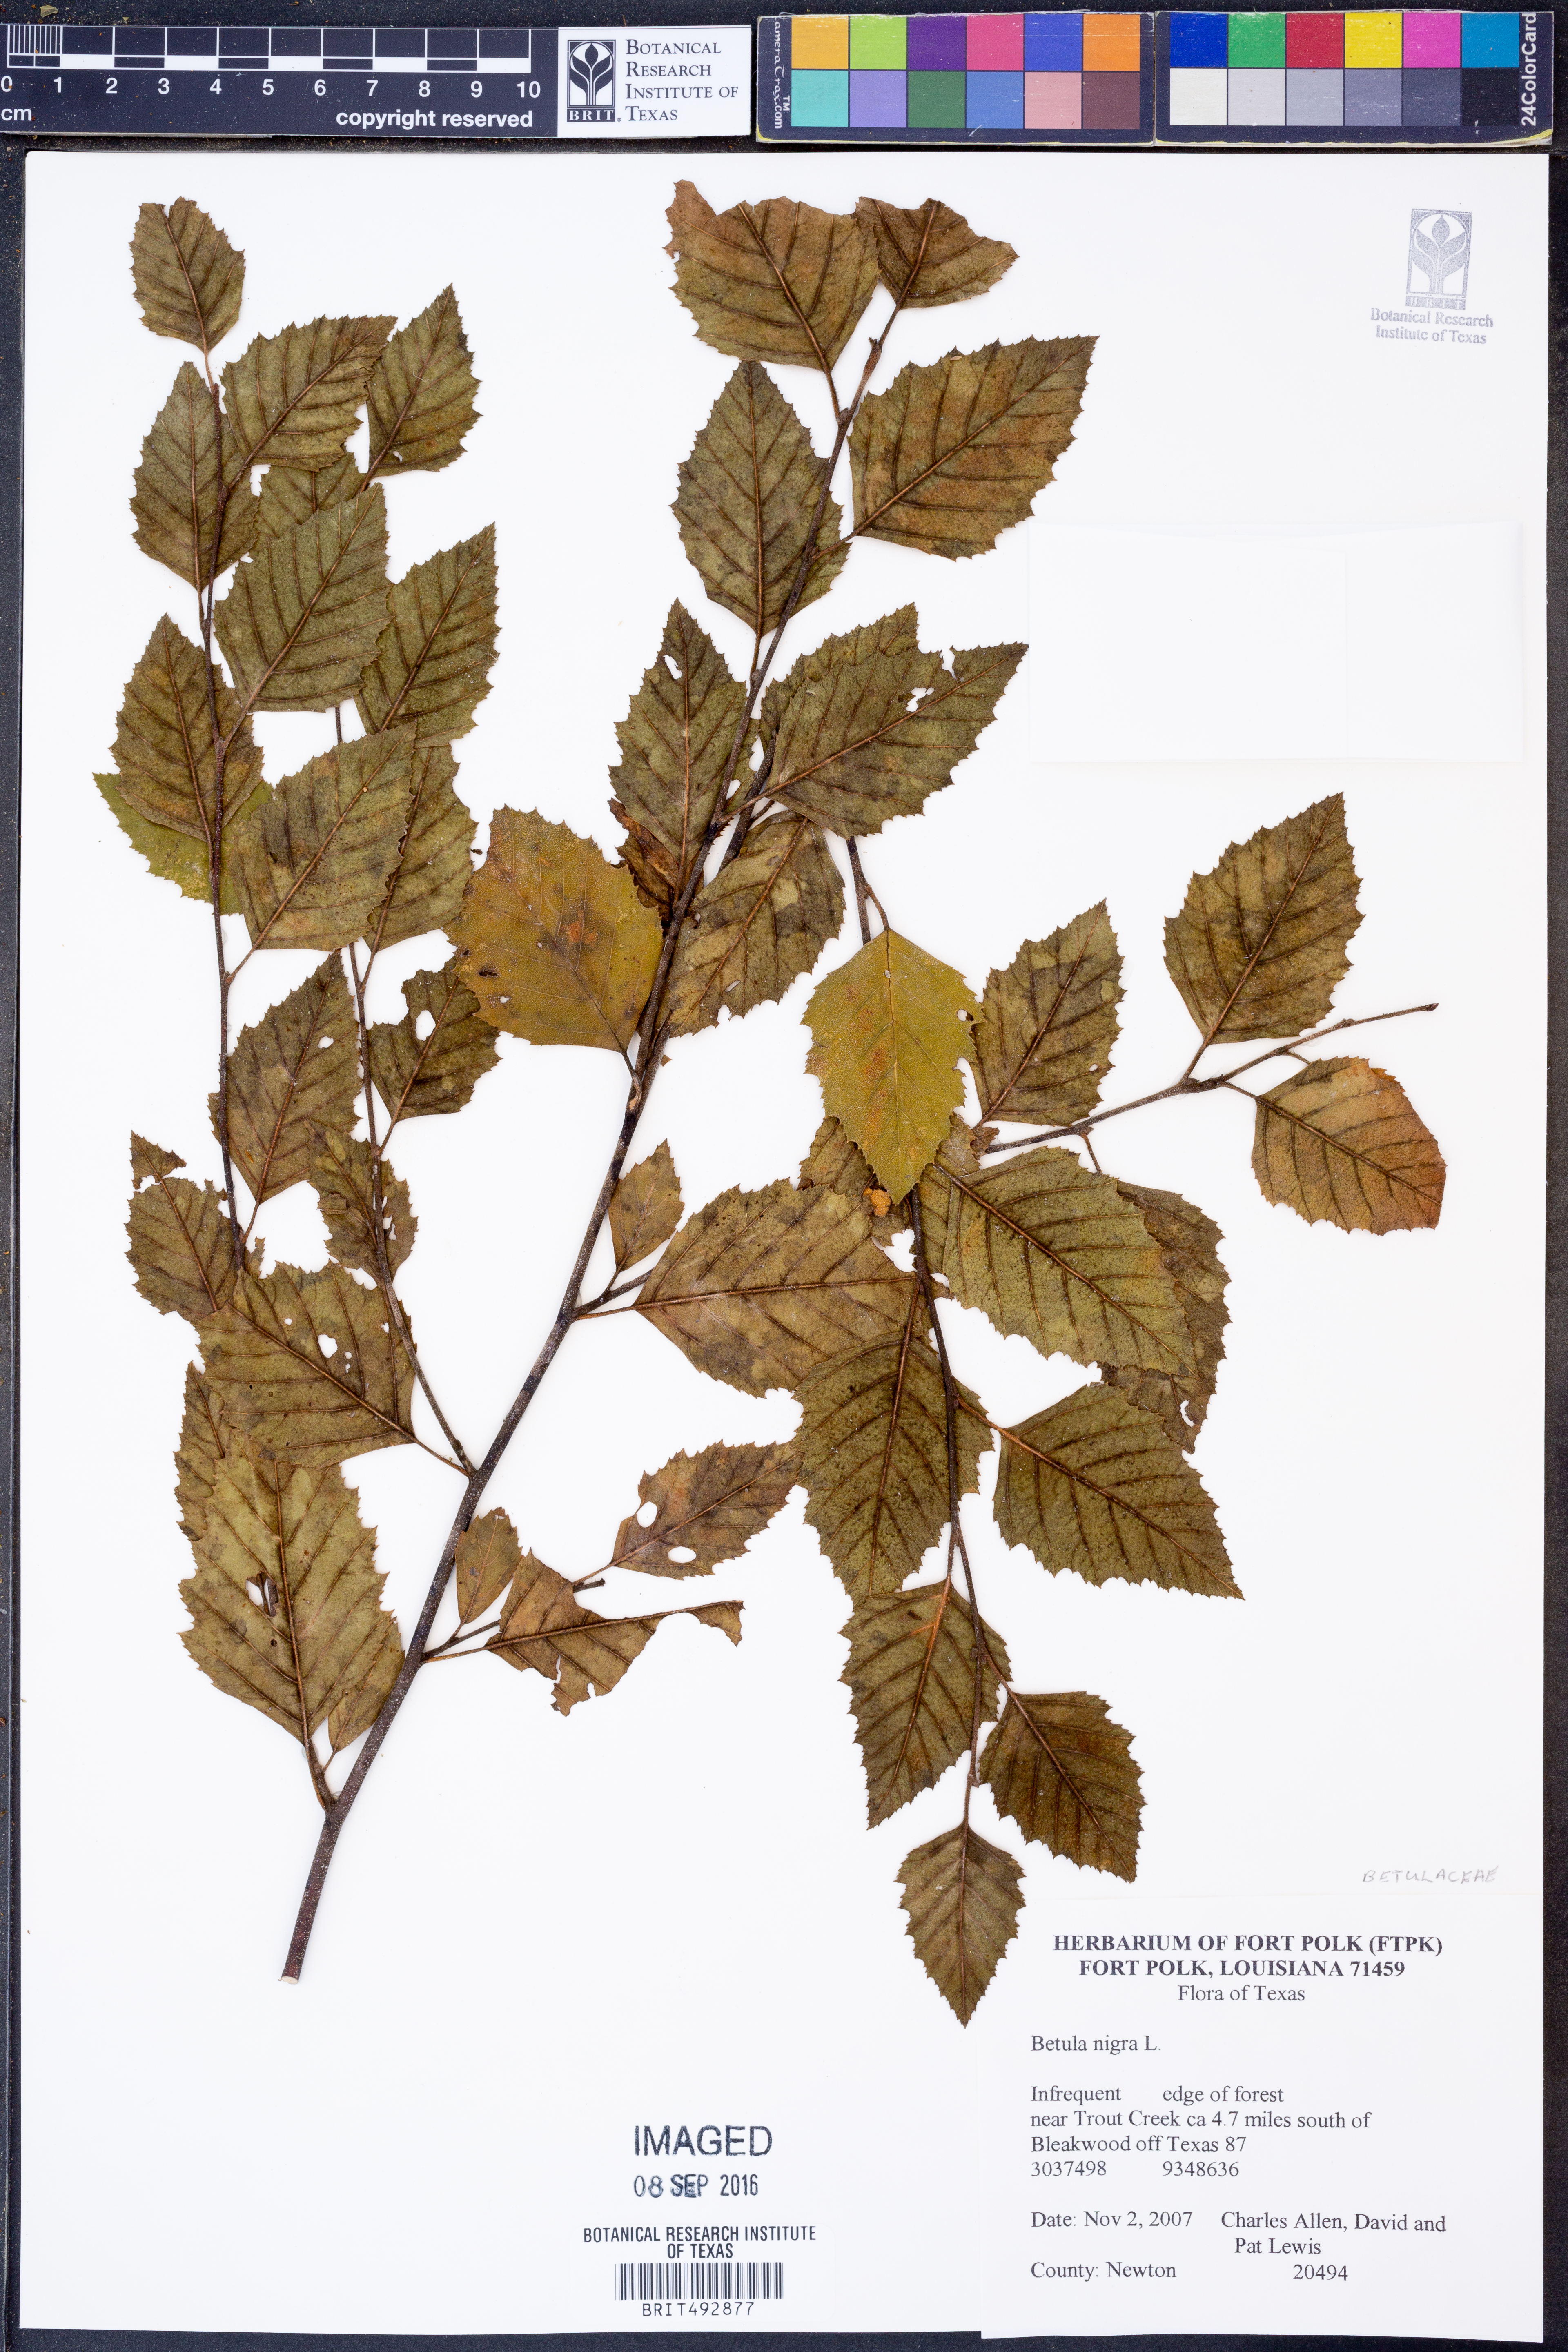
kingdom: Plantae
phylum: Tracheophyta
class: Magnoliopsida
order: Fagales
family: Betulaceae
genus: Betula
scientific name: Betula nigra
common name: Black birch
